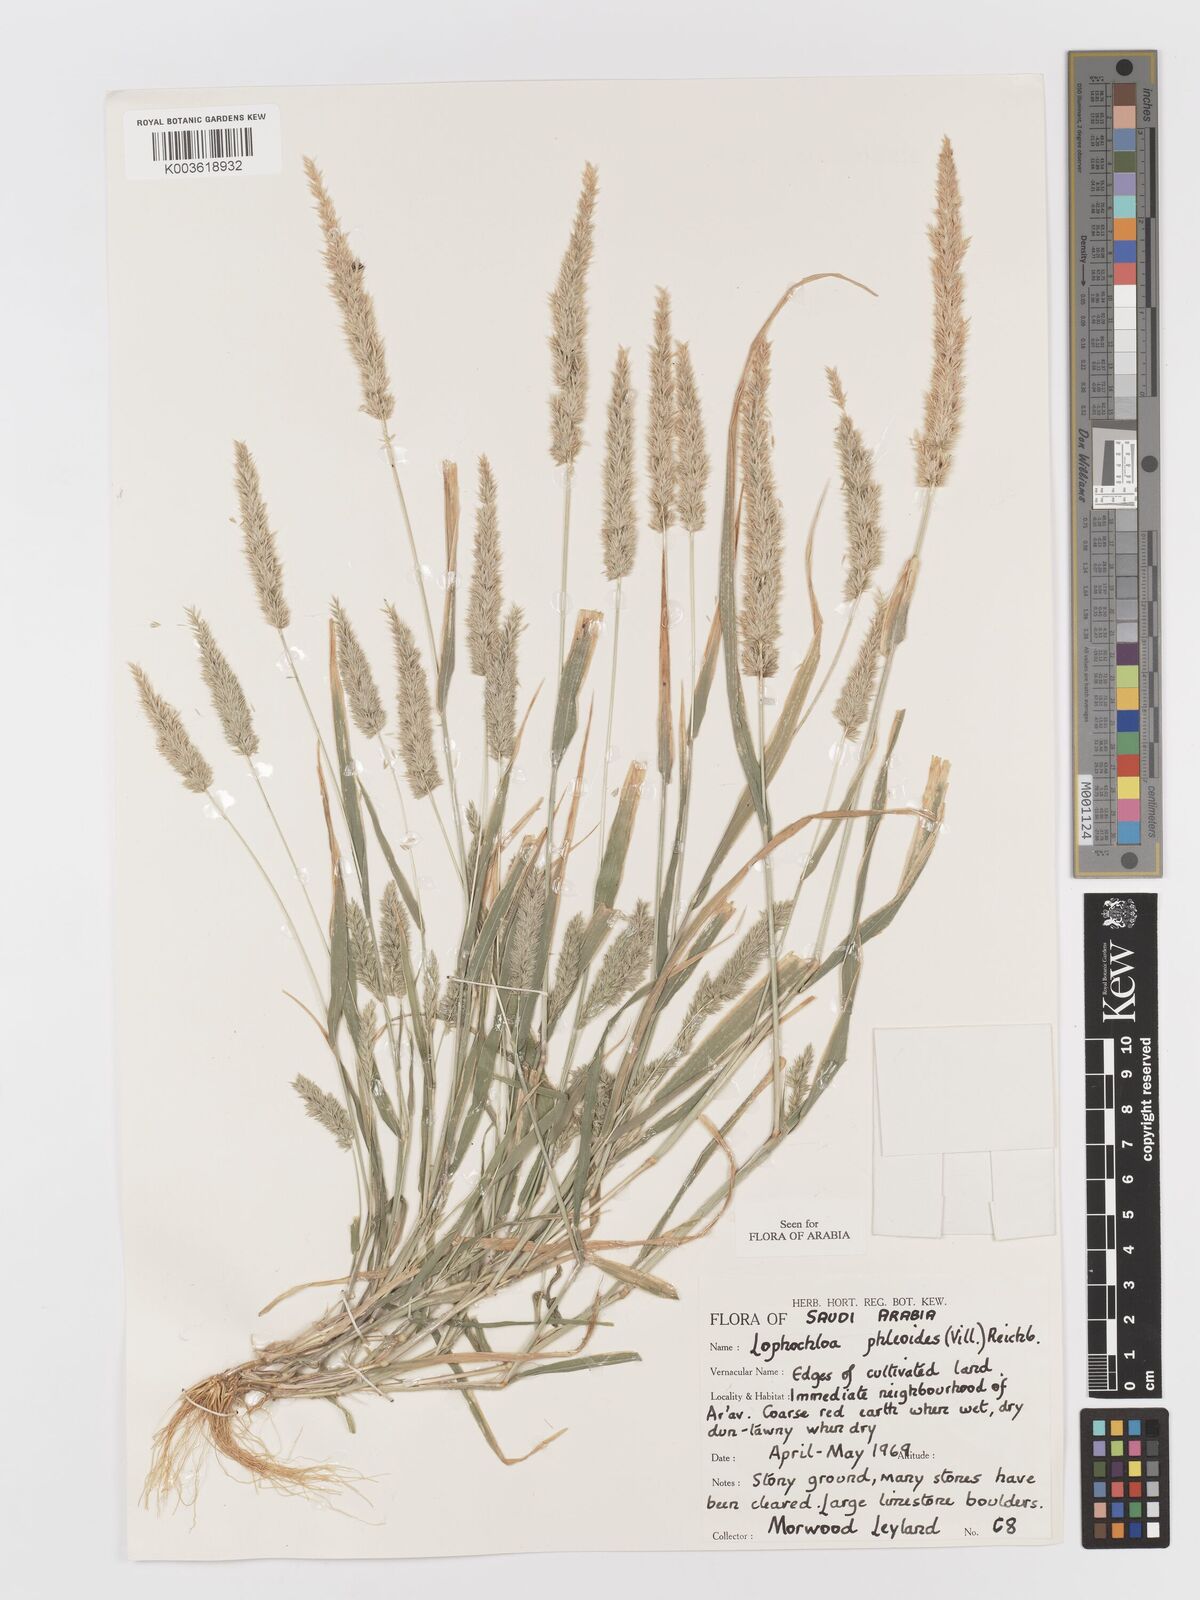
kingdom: Plantae
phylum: Tracheophyta
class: Liliopsida
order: Poales
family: Poaceae
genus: Rostraria
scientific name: Rostraria cristata
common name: Mediterranean hair-grass
